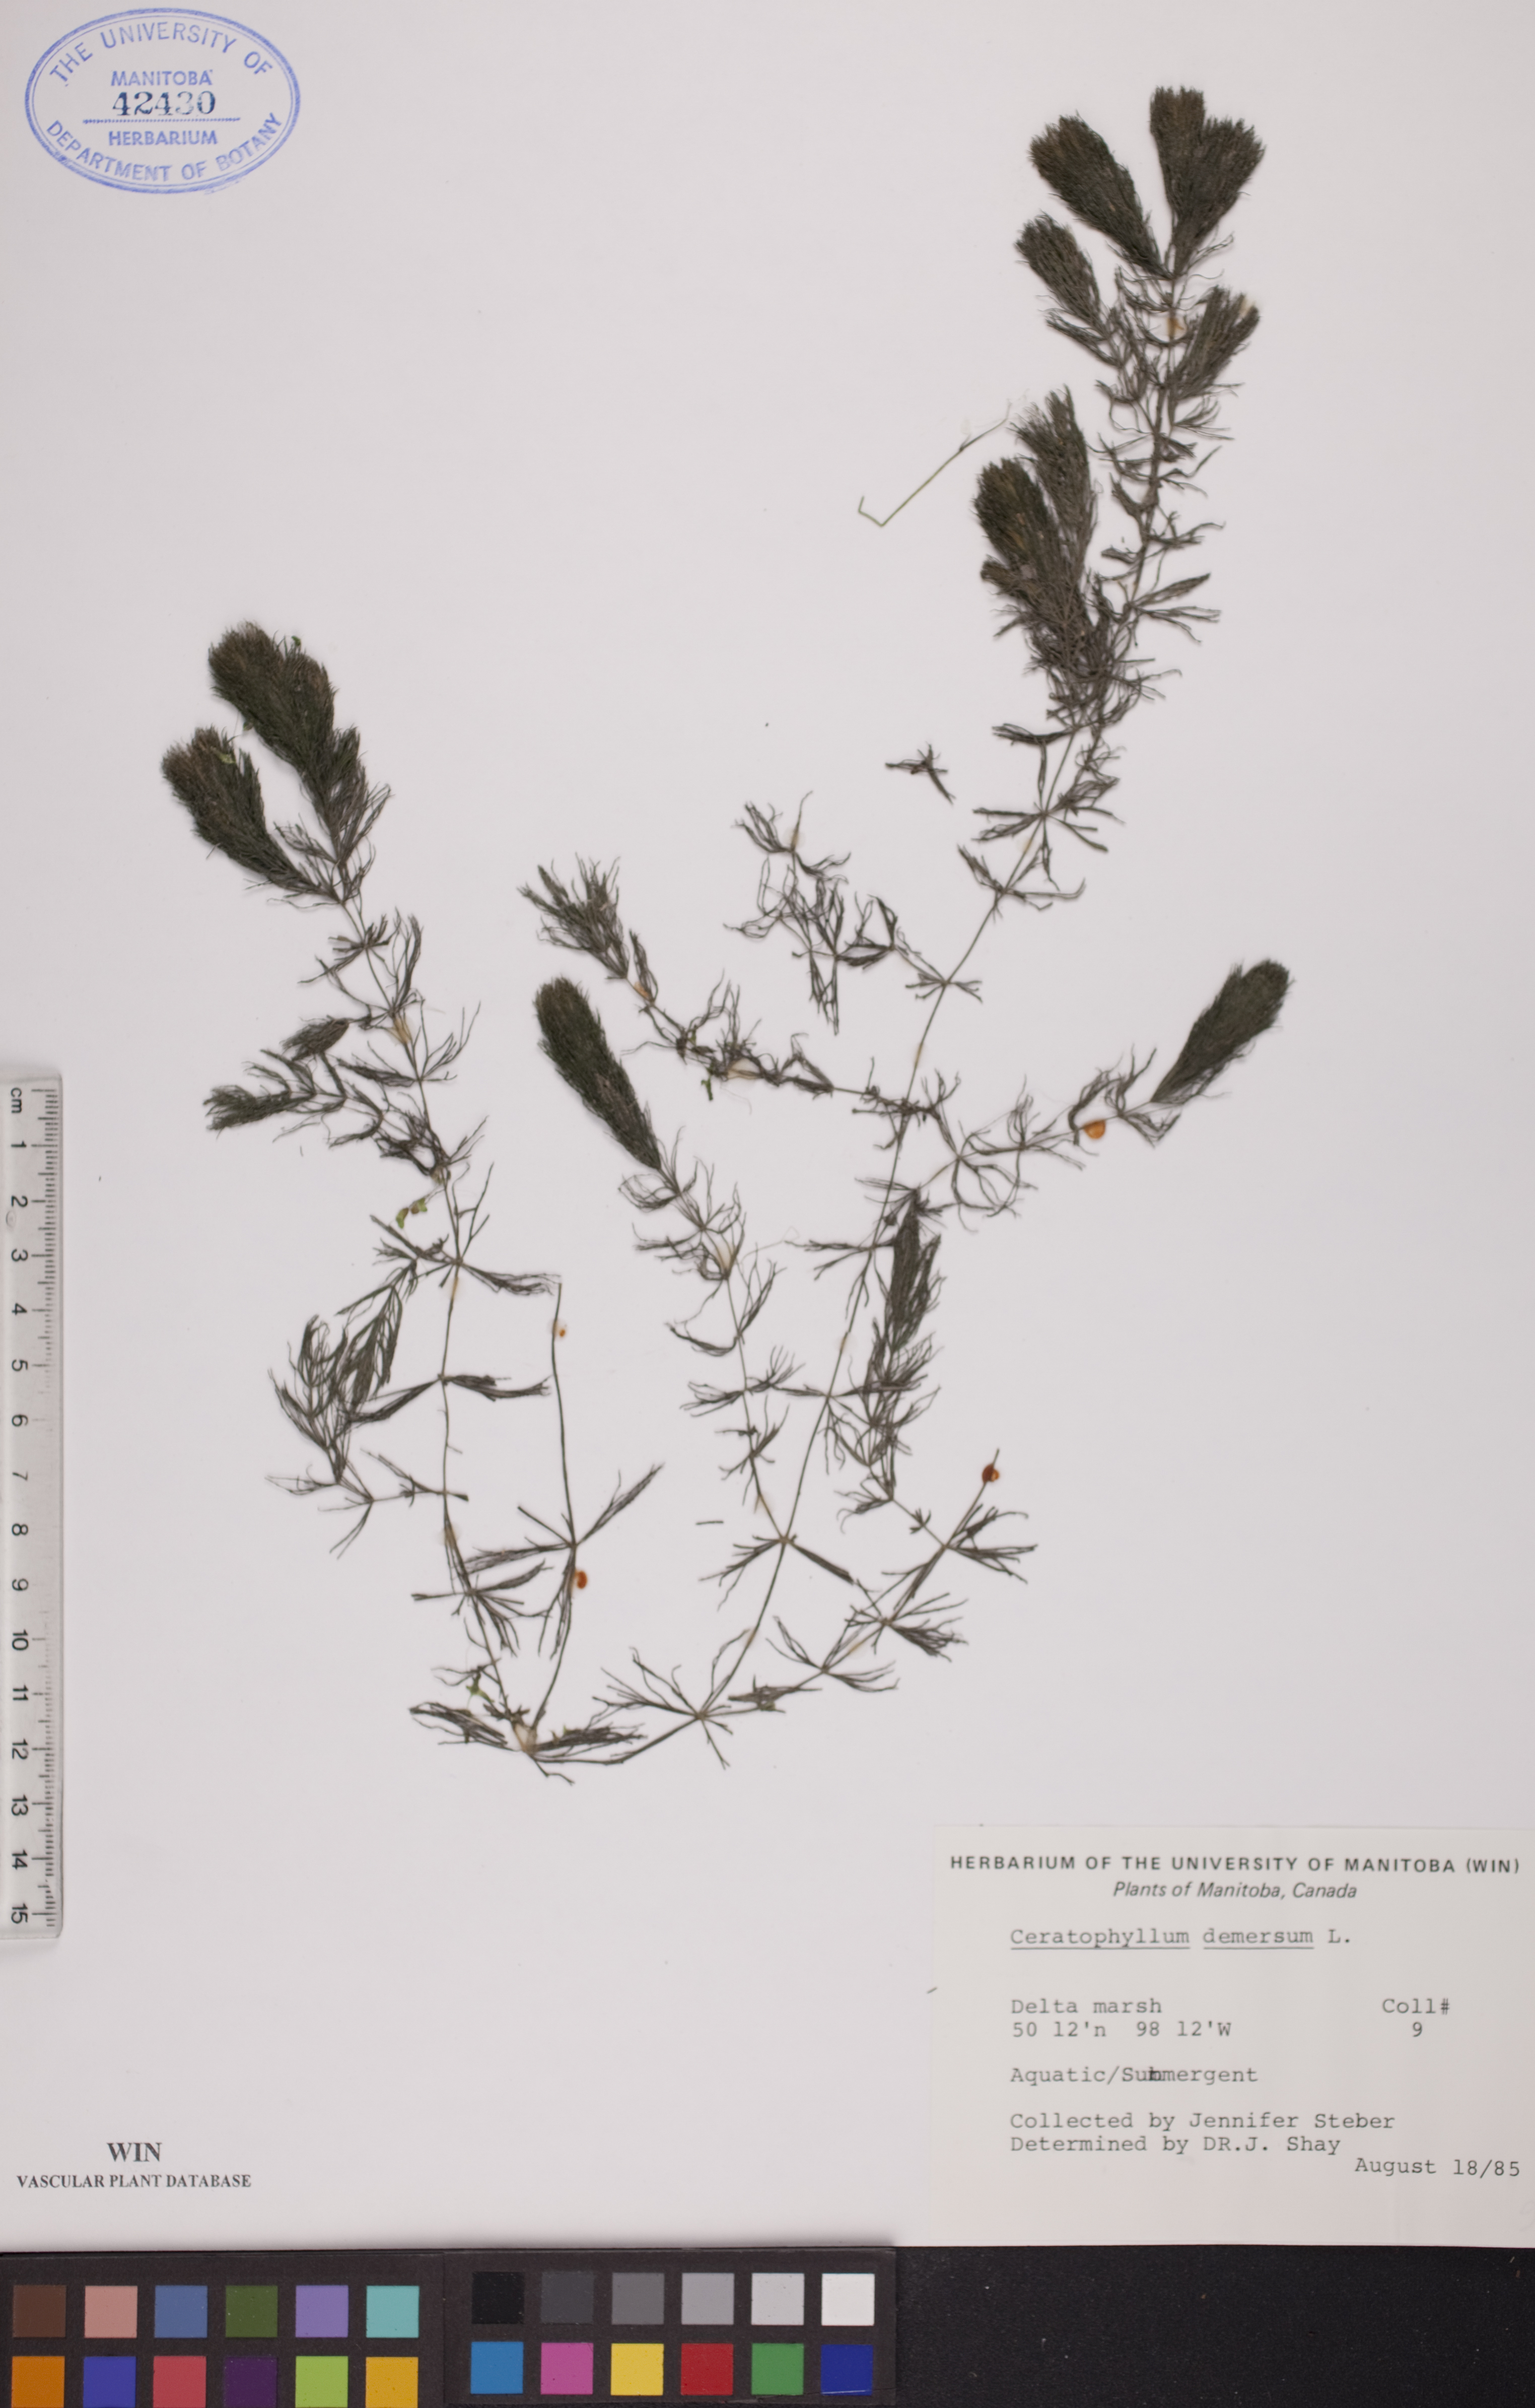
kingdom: Plantae
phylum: Tracheophyta
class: Magnoliopsida
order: Ceratophyllales
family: Ceratophyllaceae
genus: Ceratophyllum
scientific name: Ceratophyllum demersum
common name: Rigid hornwort
